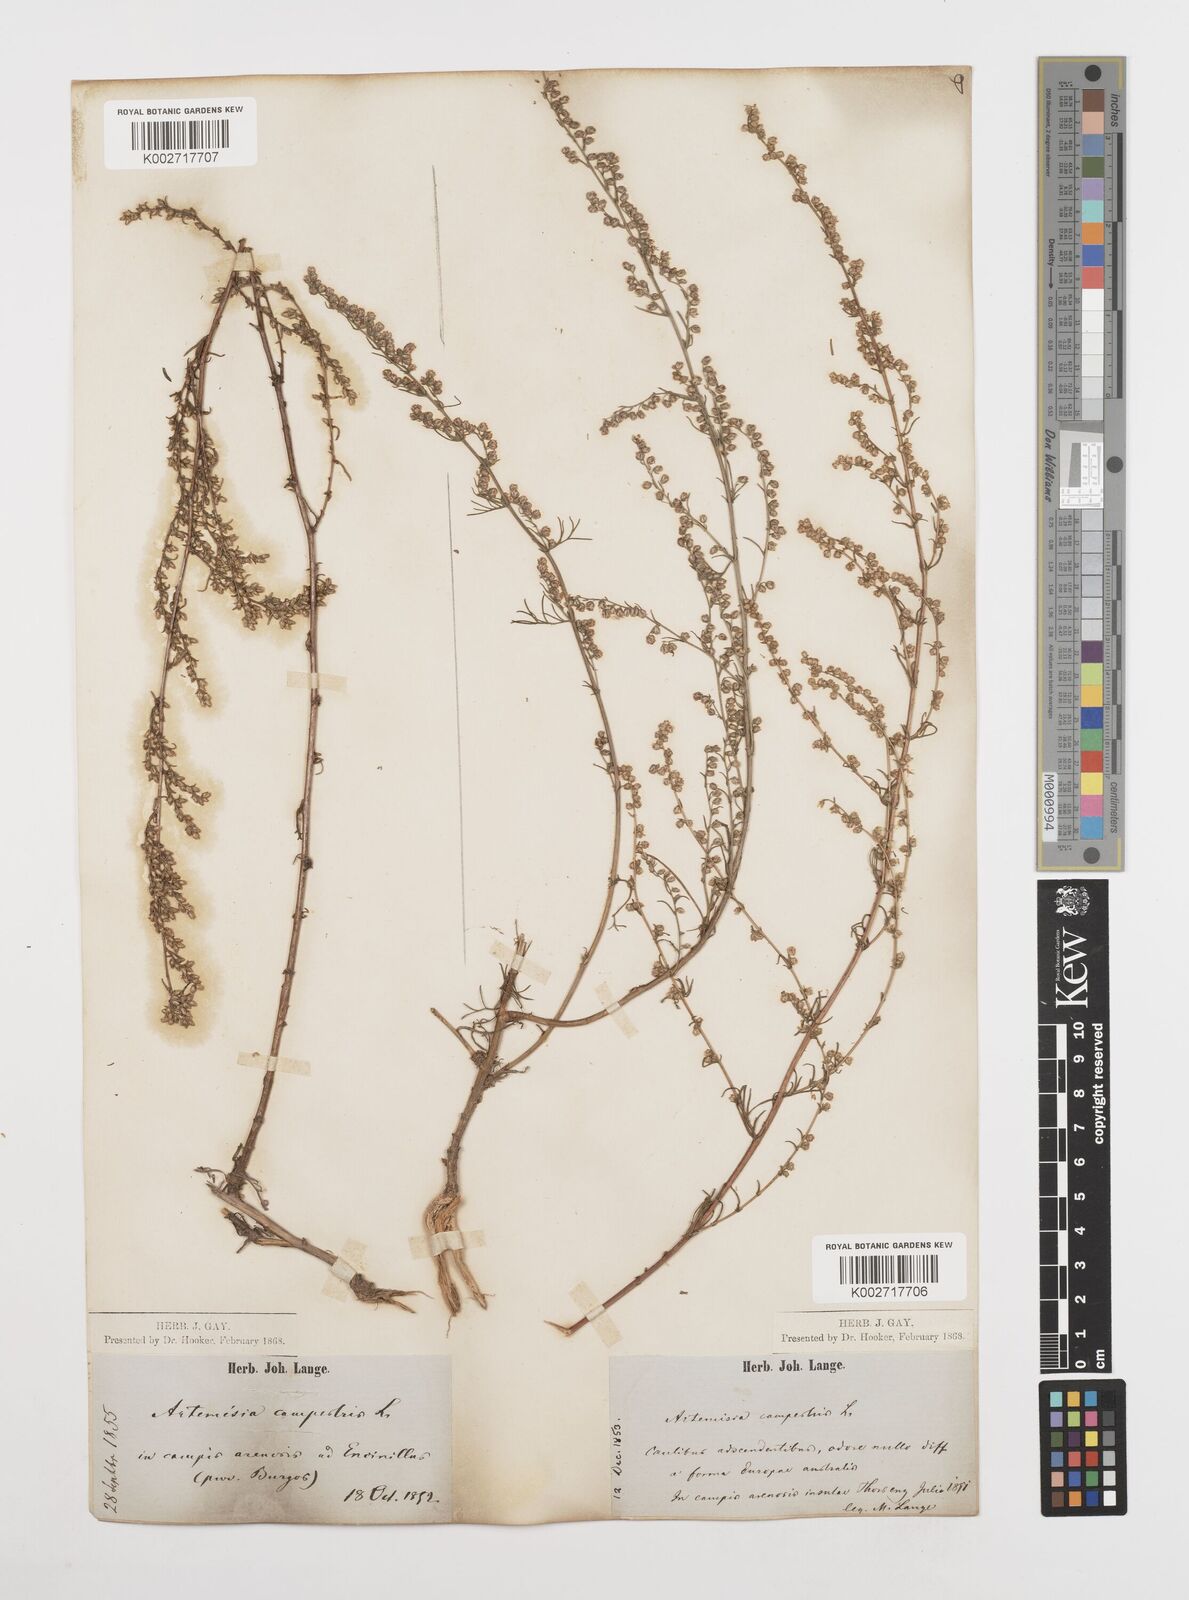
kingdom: Plantae
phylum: Tracheophyta
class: Magnoliopsida
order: Asterales
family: Asteraceae
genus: Artemisia
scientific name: Artemisia campestris
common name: Field wormwood
